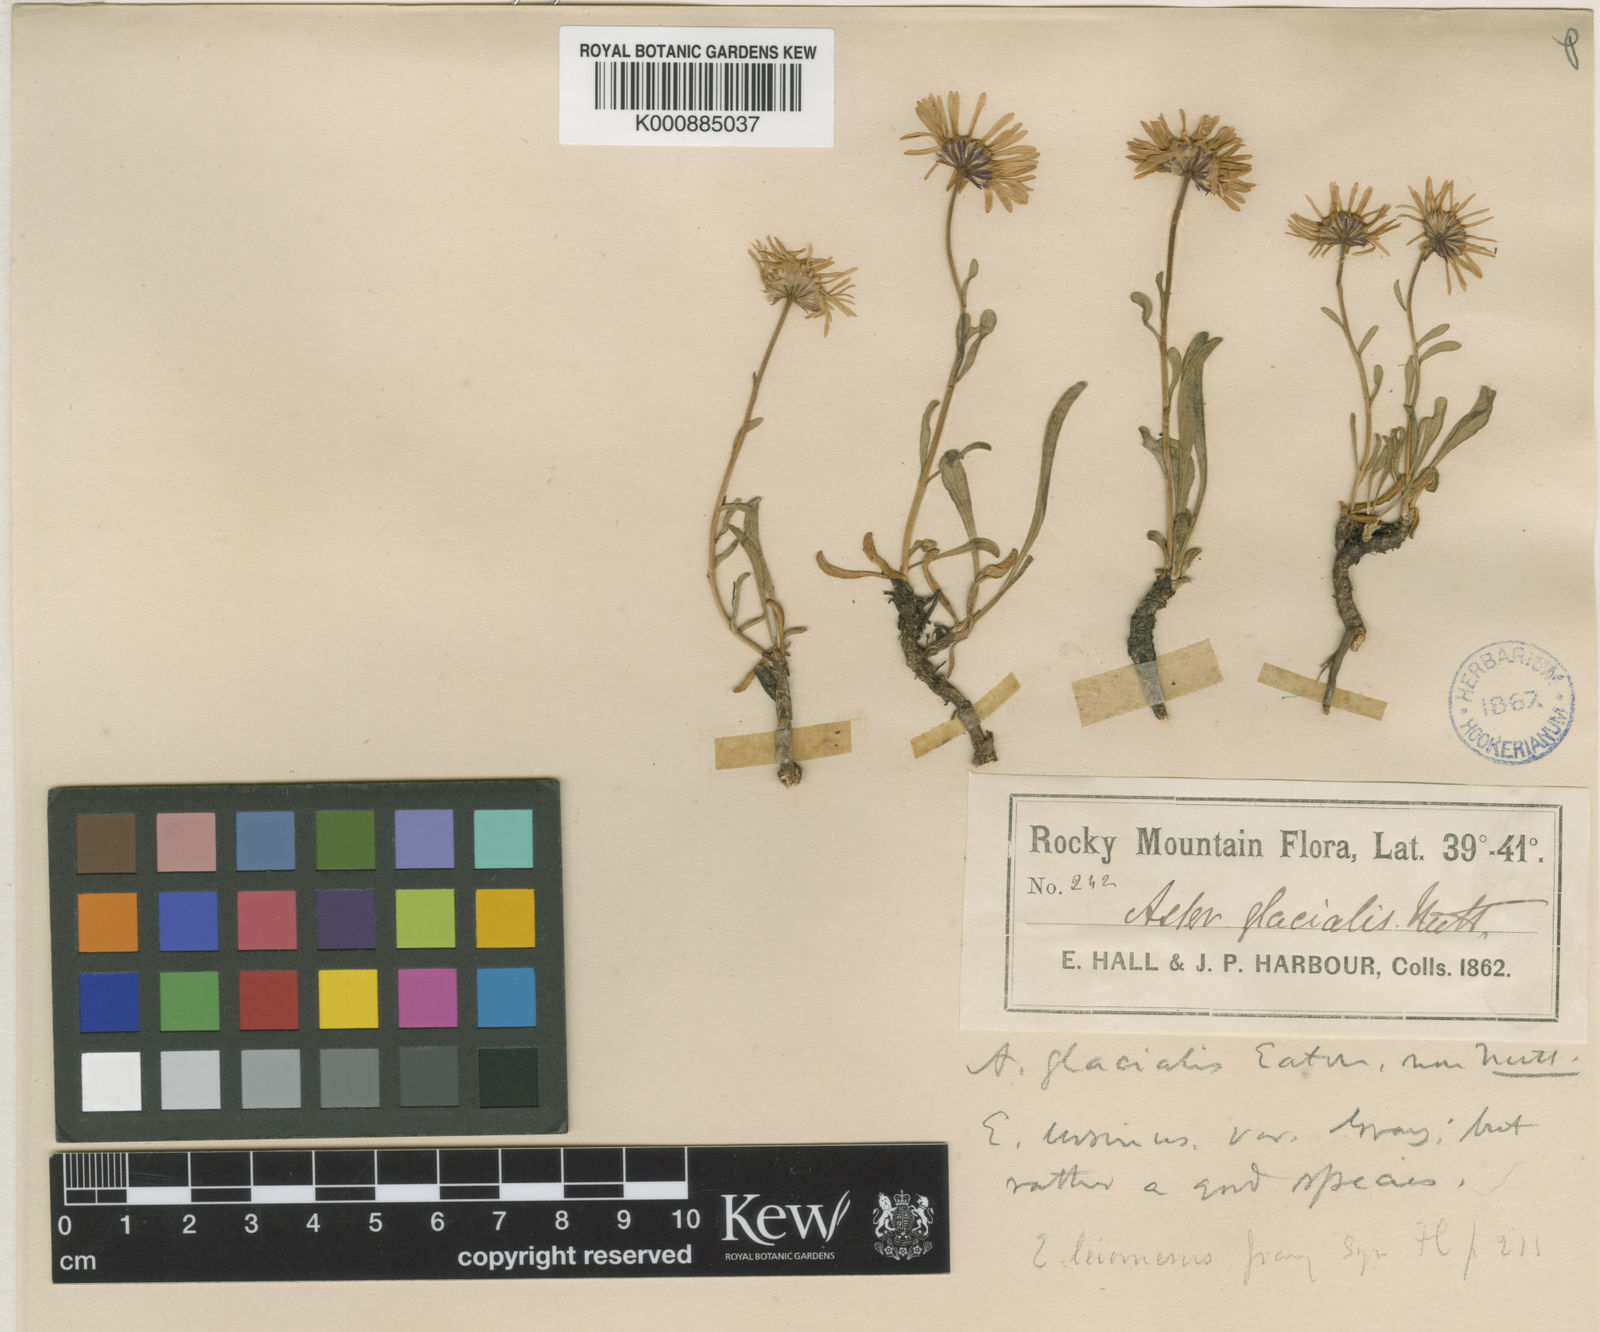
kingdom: Plantae
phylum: Tracheophyta
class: Magnoliopsida
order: Asterales
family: Asteraceae
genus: Erigeron
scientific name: Erigeron
